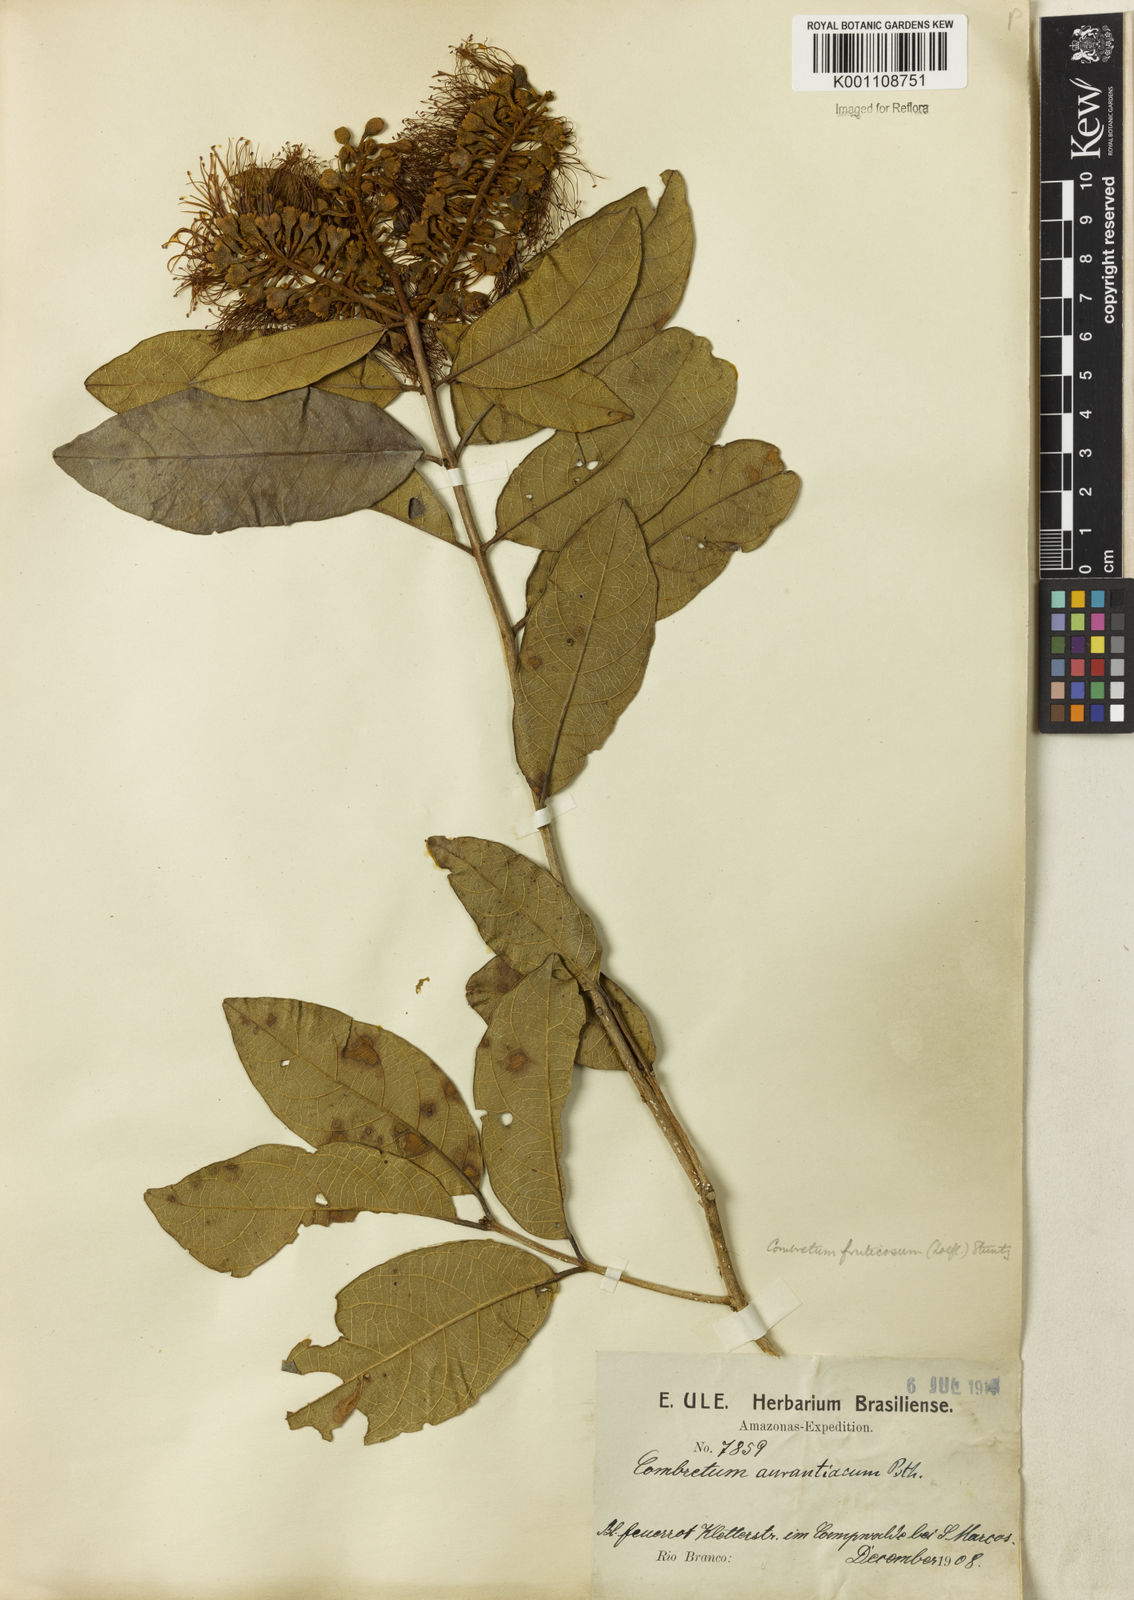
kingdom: Plantae
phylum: Tracheophyta
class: Magnoliopsida
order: Myrtales
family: Combretaceae
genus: Combretum
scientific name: Combretum fruticosum
